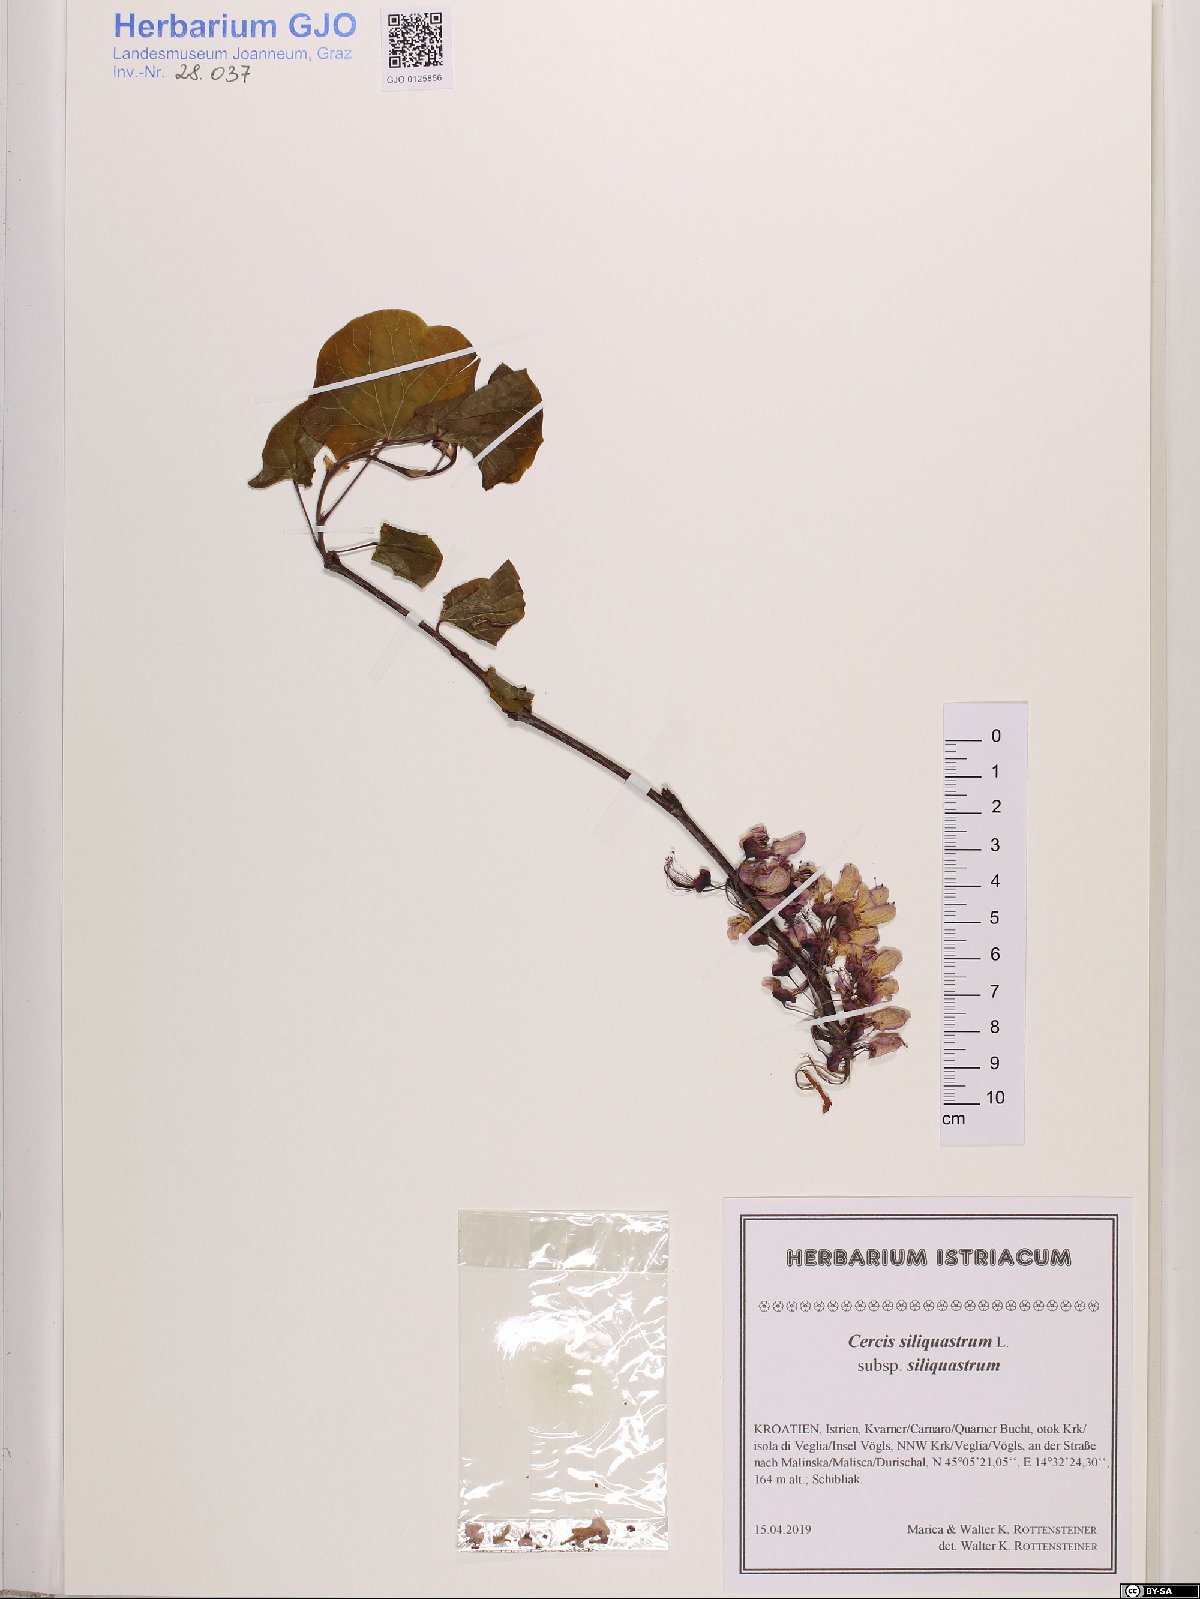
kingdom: Plantae
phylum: Tracheophyta
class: Magnoliopsida
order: Fabales
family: Fabaceae
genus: Cercis
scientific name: Cercis siliquastrum
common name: Judas tree
